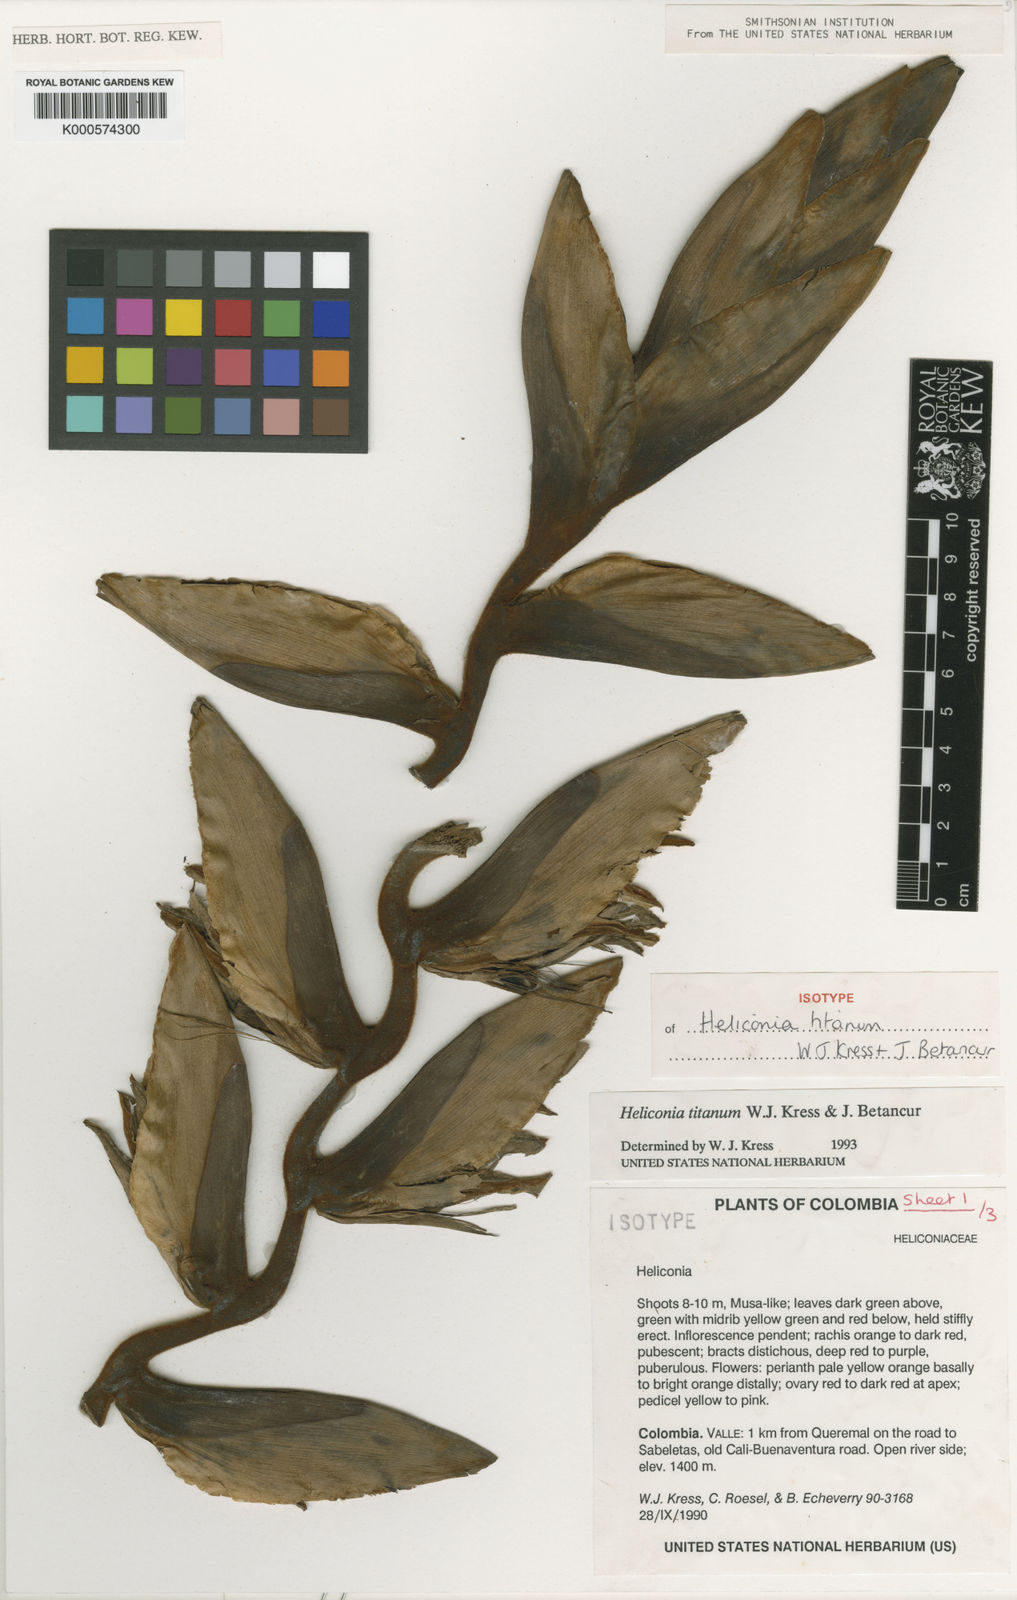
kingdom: Plantae
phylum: Tracheophyta
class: Liliopsida
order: Zingiberales
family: Heliconiaceae
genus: Heliconia
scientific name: Heliconia titanum
